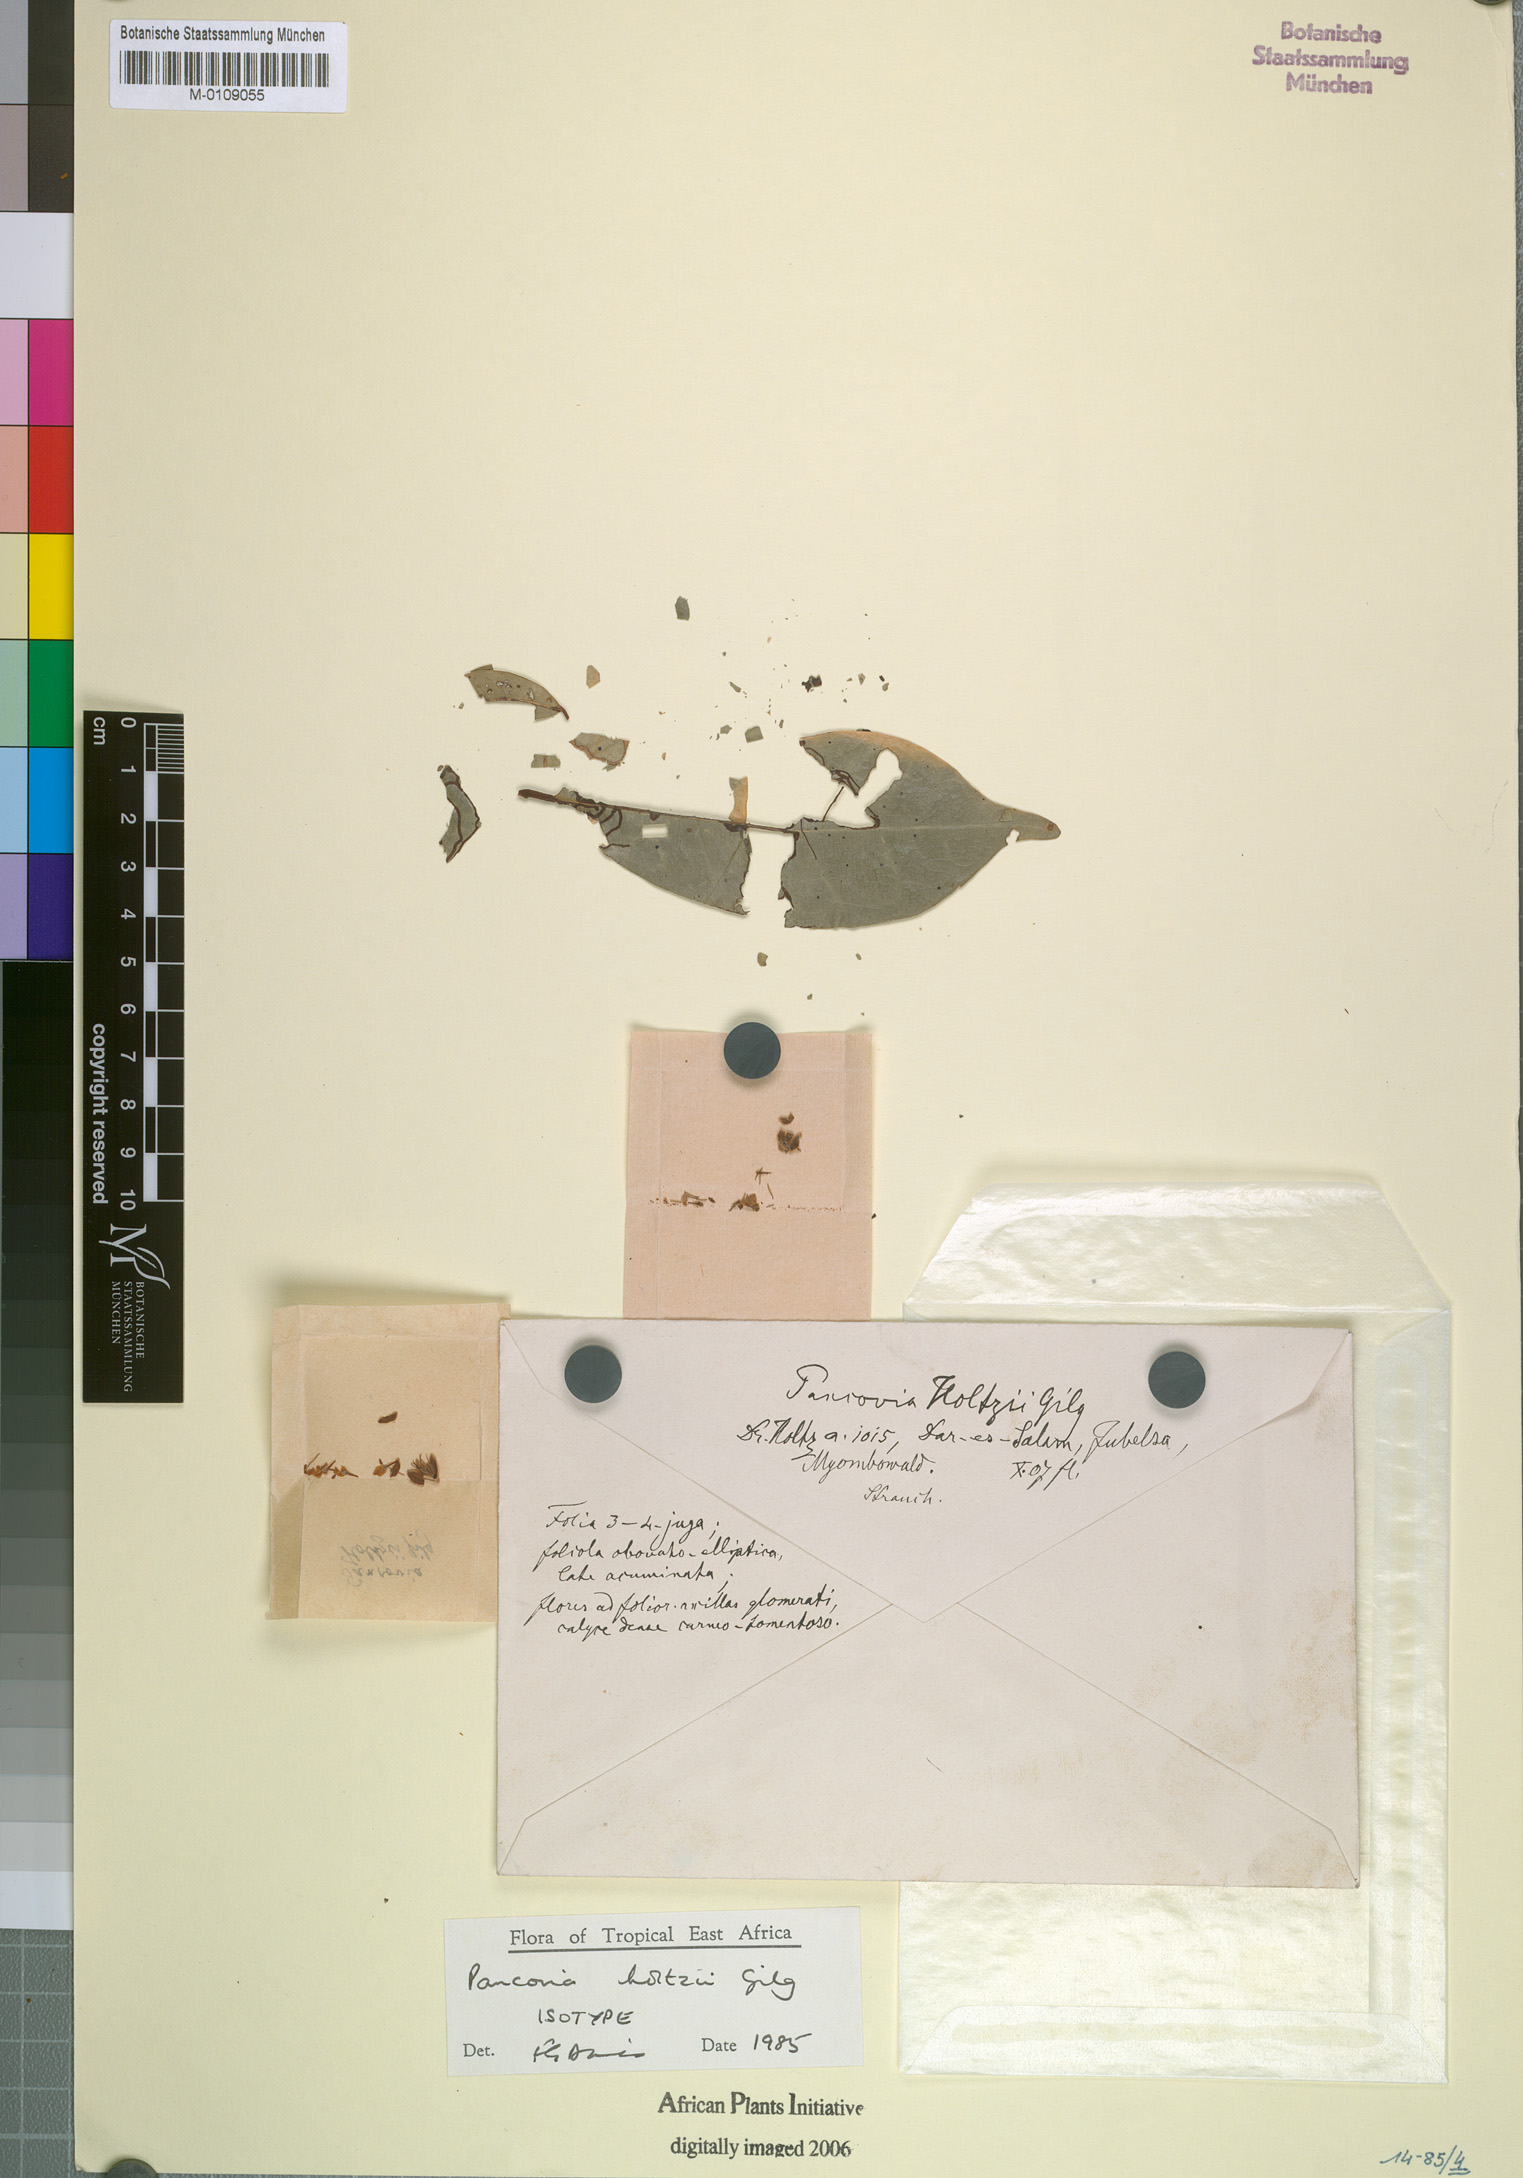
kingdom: Plantae
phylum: Tracheophyta
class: Magnoliopsida
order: Sapindales
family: Sapindaceae
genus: Pancovia
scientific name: Pancovia holtzii
